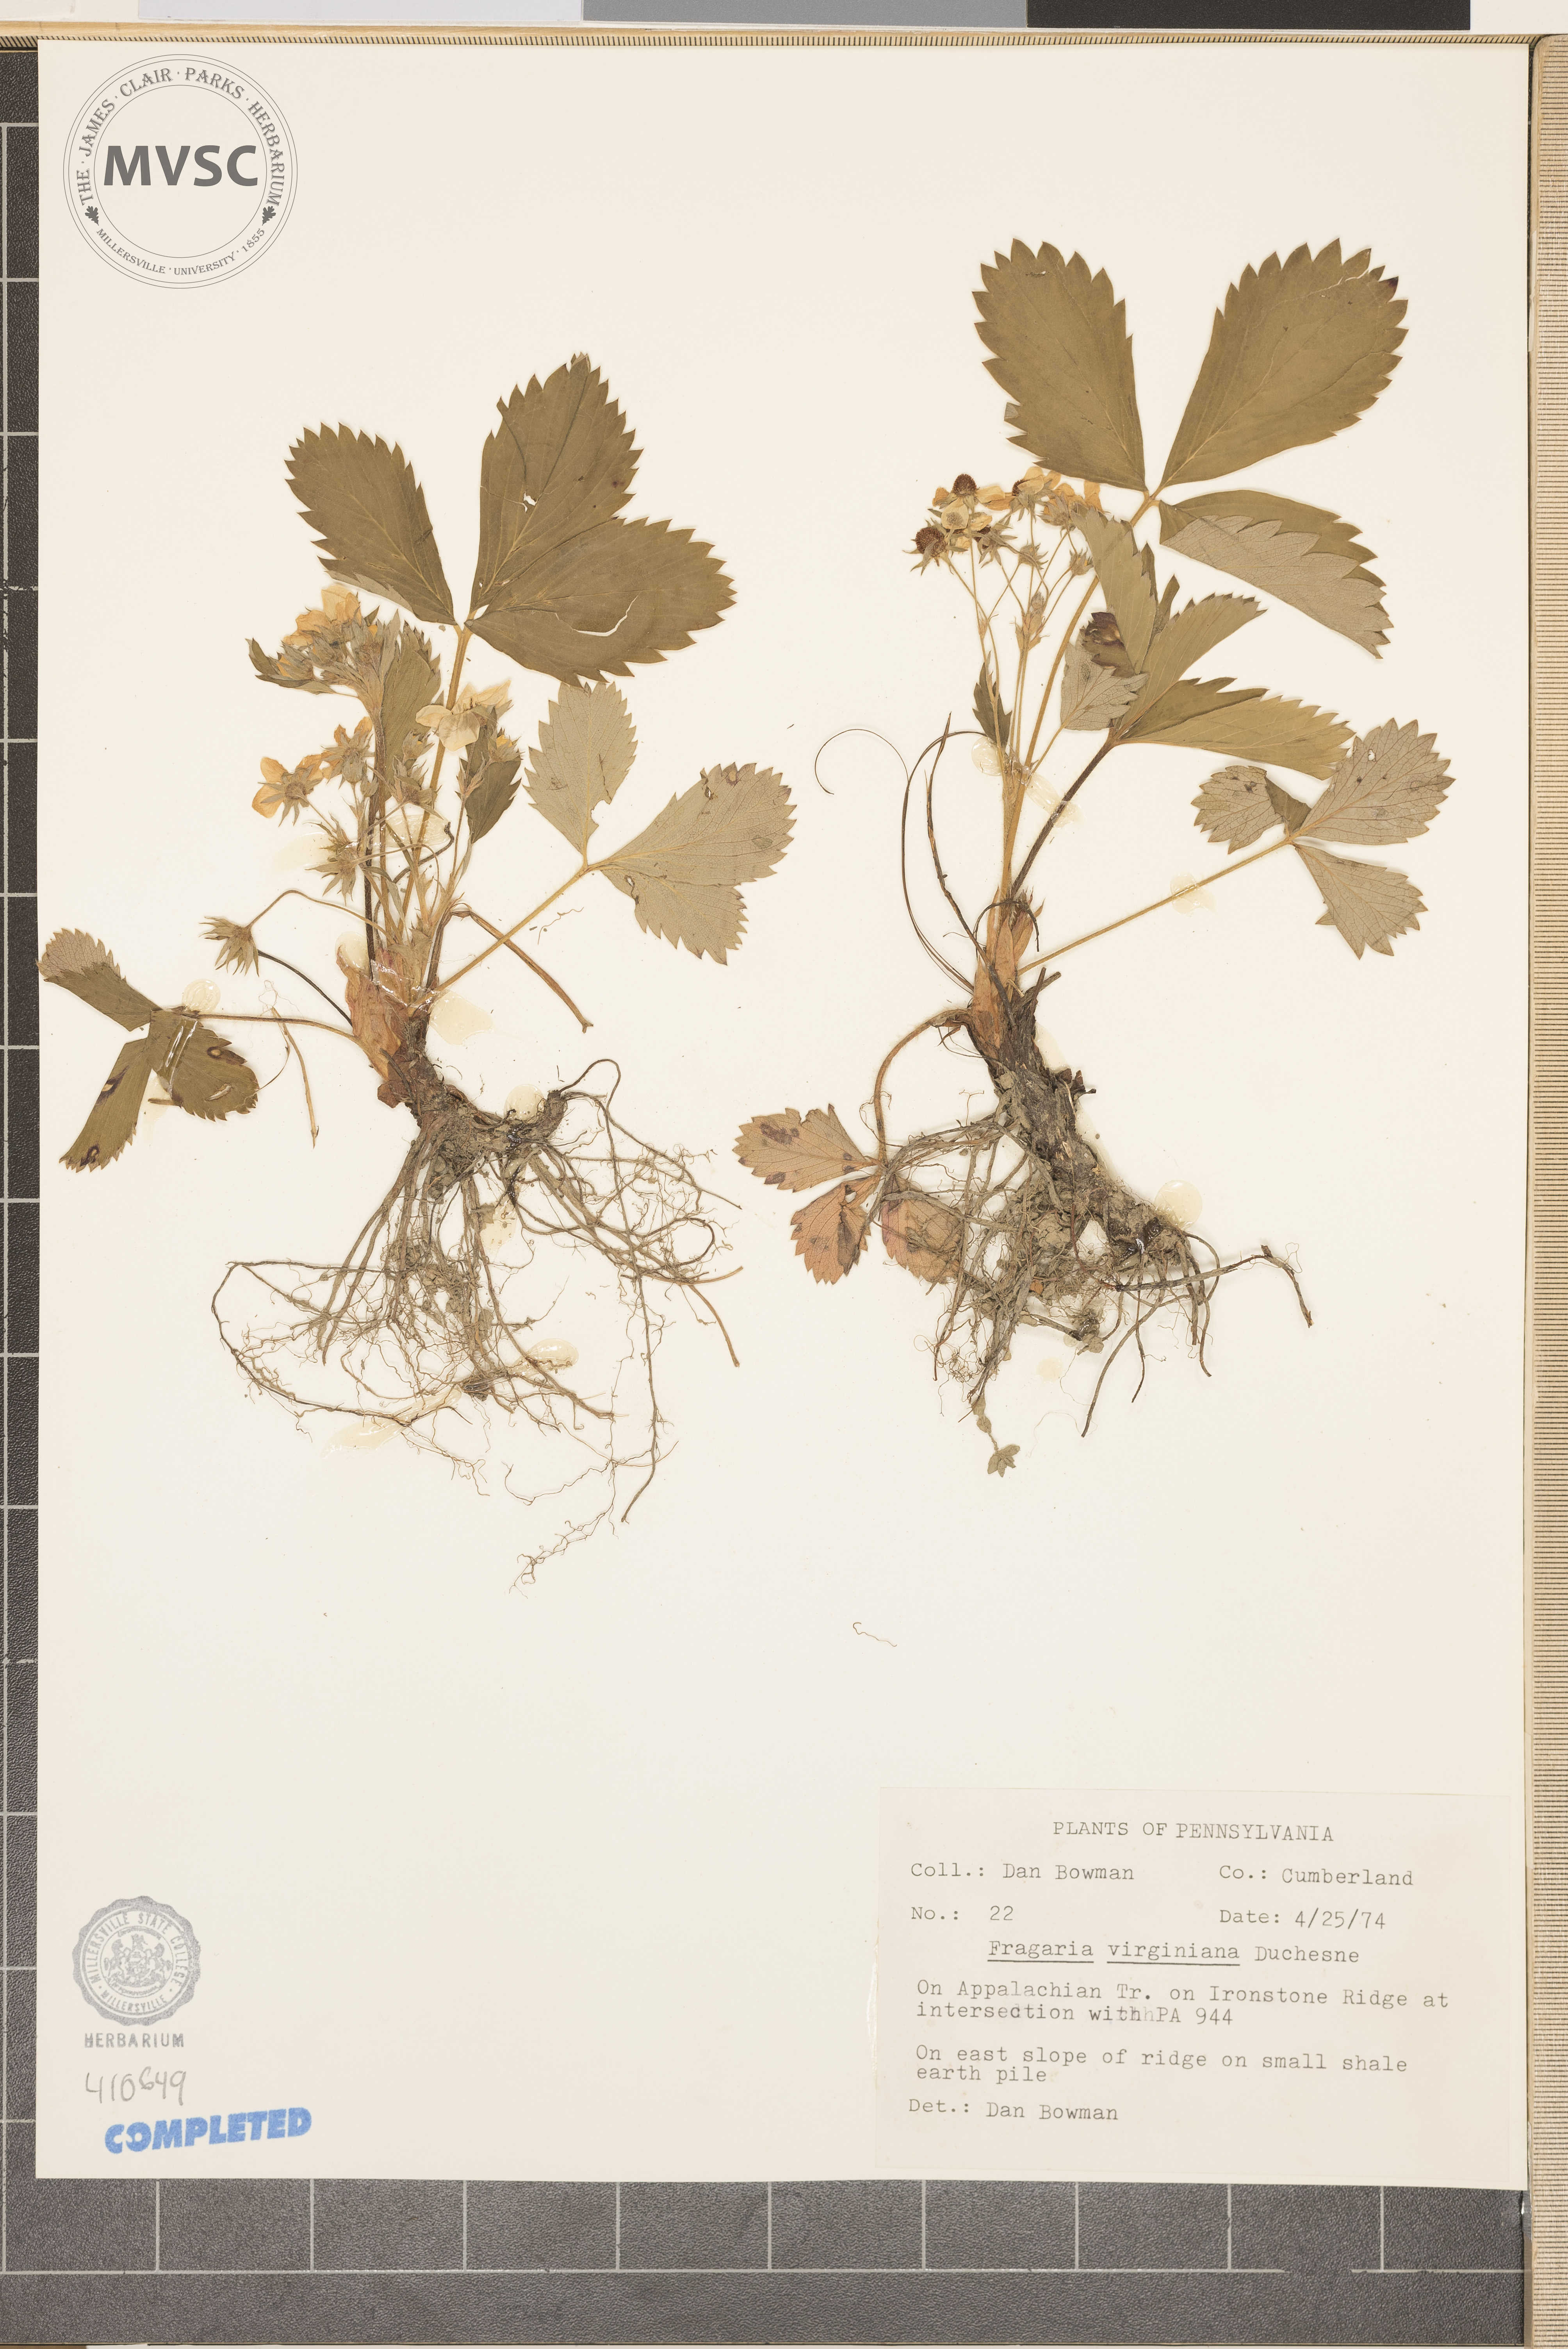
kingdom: Plantae
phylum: Tracheophyta
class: Magnoliopsida
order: Rosales
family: Rosaceae
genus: Fragaria
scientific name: Fragaria virginiana
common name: Thickleaved wild strawberry
